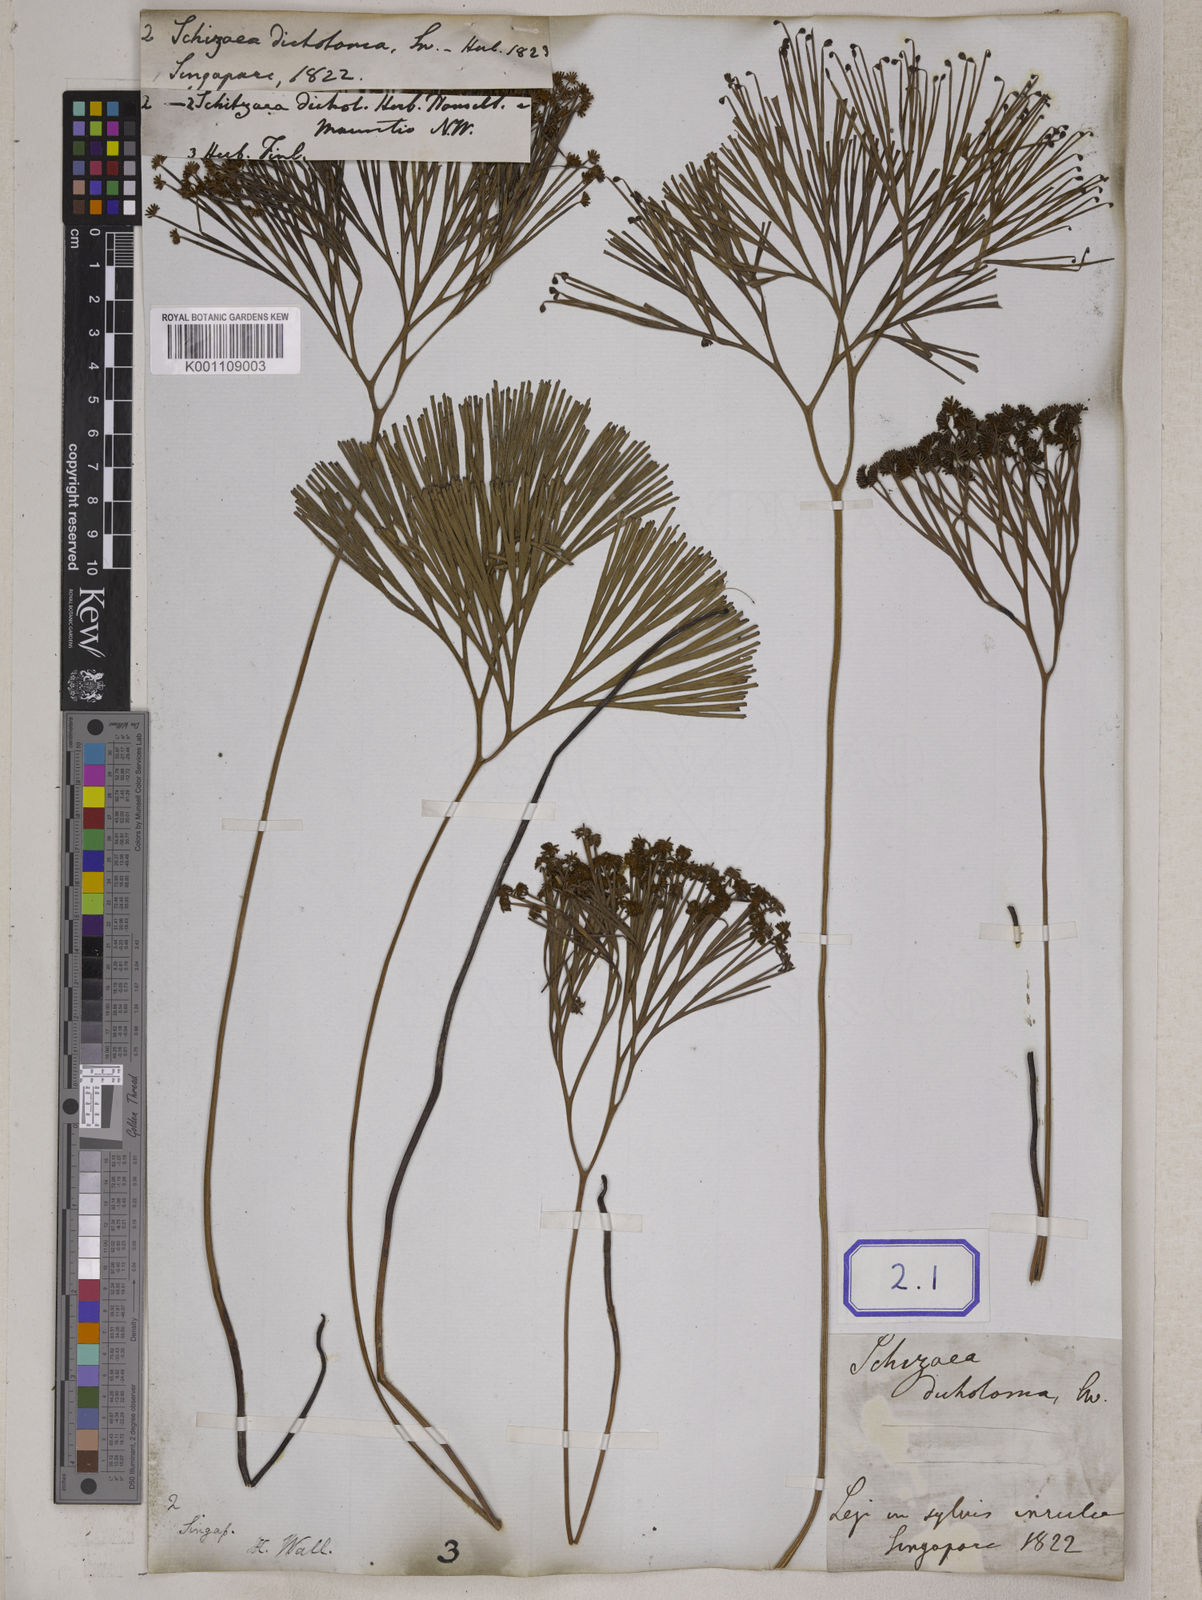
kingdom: Plantae
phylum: Tracheophyta
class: Polypodiopsida
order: Schizaeales
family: Schizaeaceae
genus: Schizaea
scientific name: Schizaea
